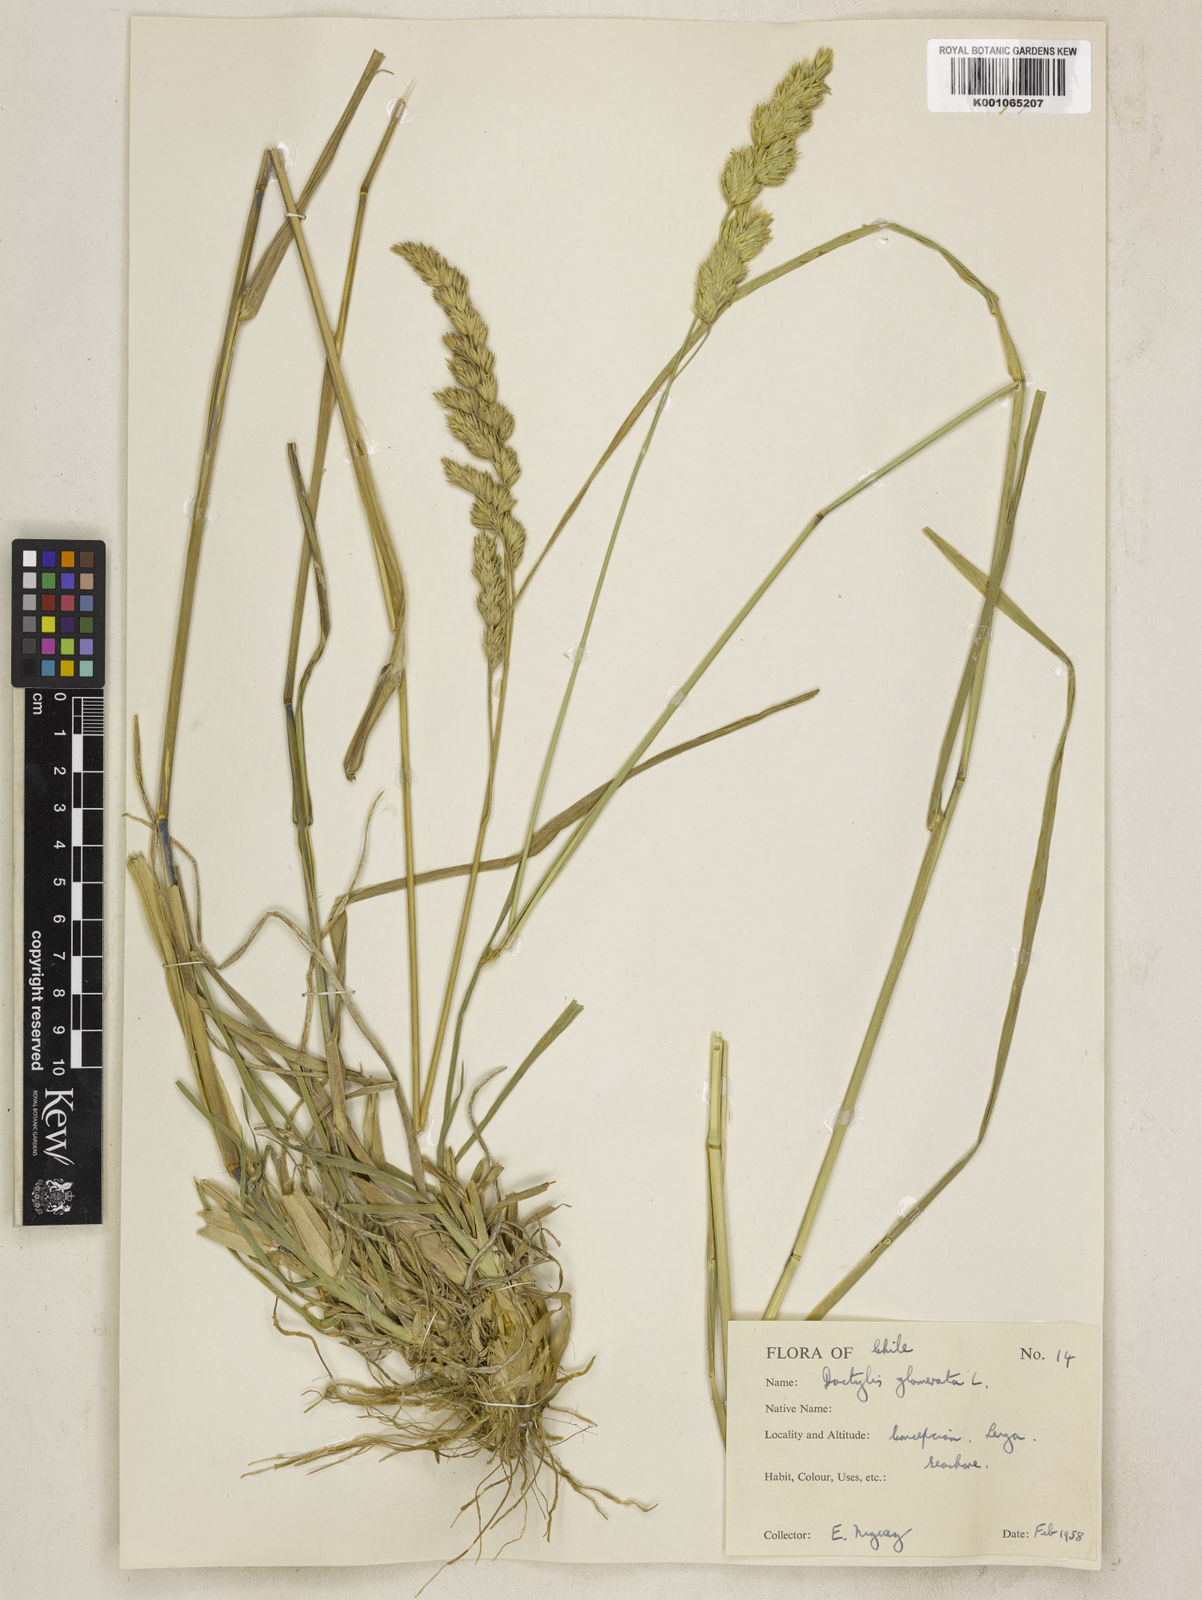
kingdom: Plantae
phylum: Tracheophyta
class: Liliopsida
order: Poales
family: Poaceae
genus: Dactylis
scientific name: Dactylis glomerata
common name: Orchardgrass
